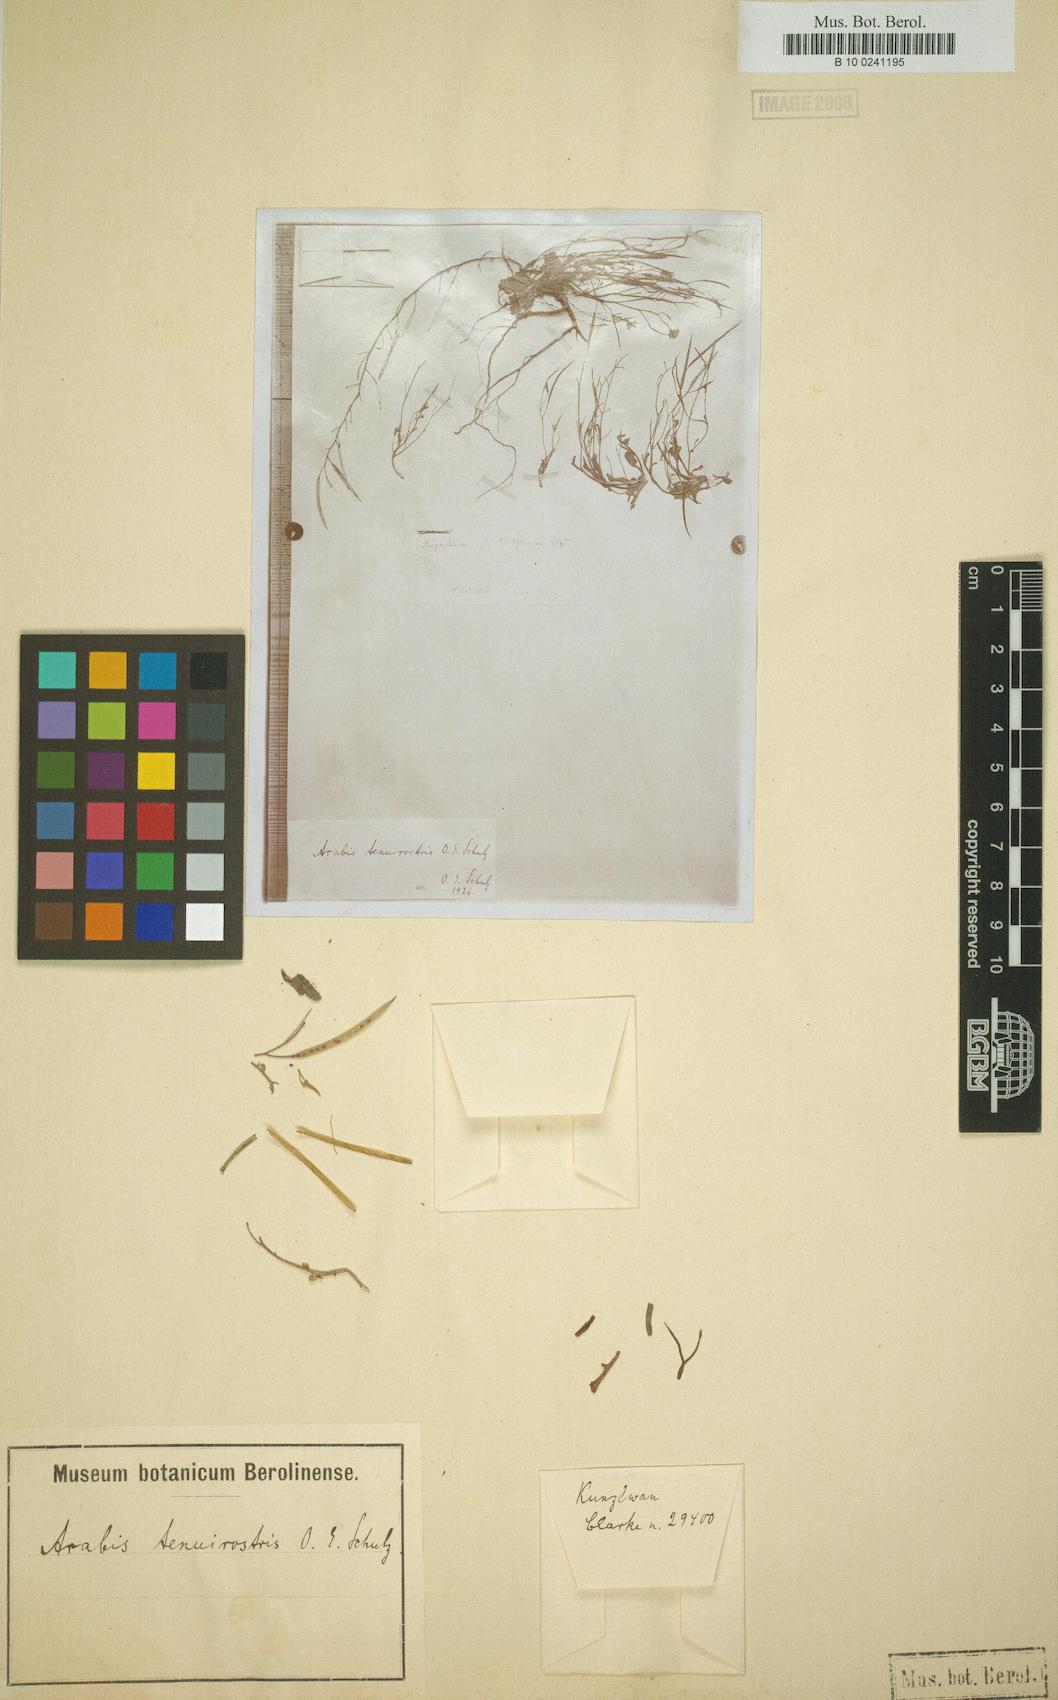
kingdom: Plantae
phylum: Tracheophyta
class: Magnoliopsida
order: Brassicales
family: Brassicaceae
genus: Crucihimalaya
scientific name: Crucihimalaya tibetica
